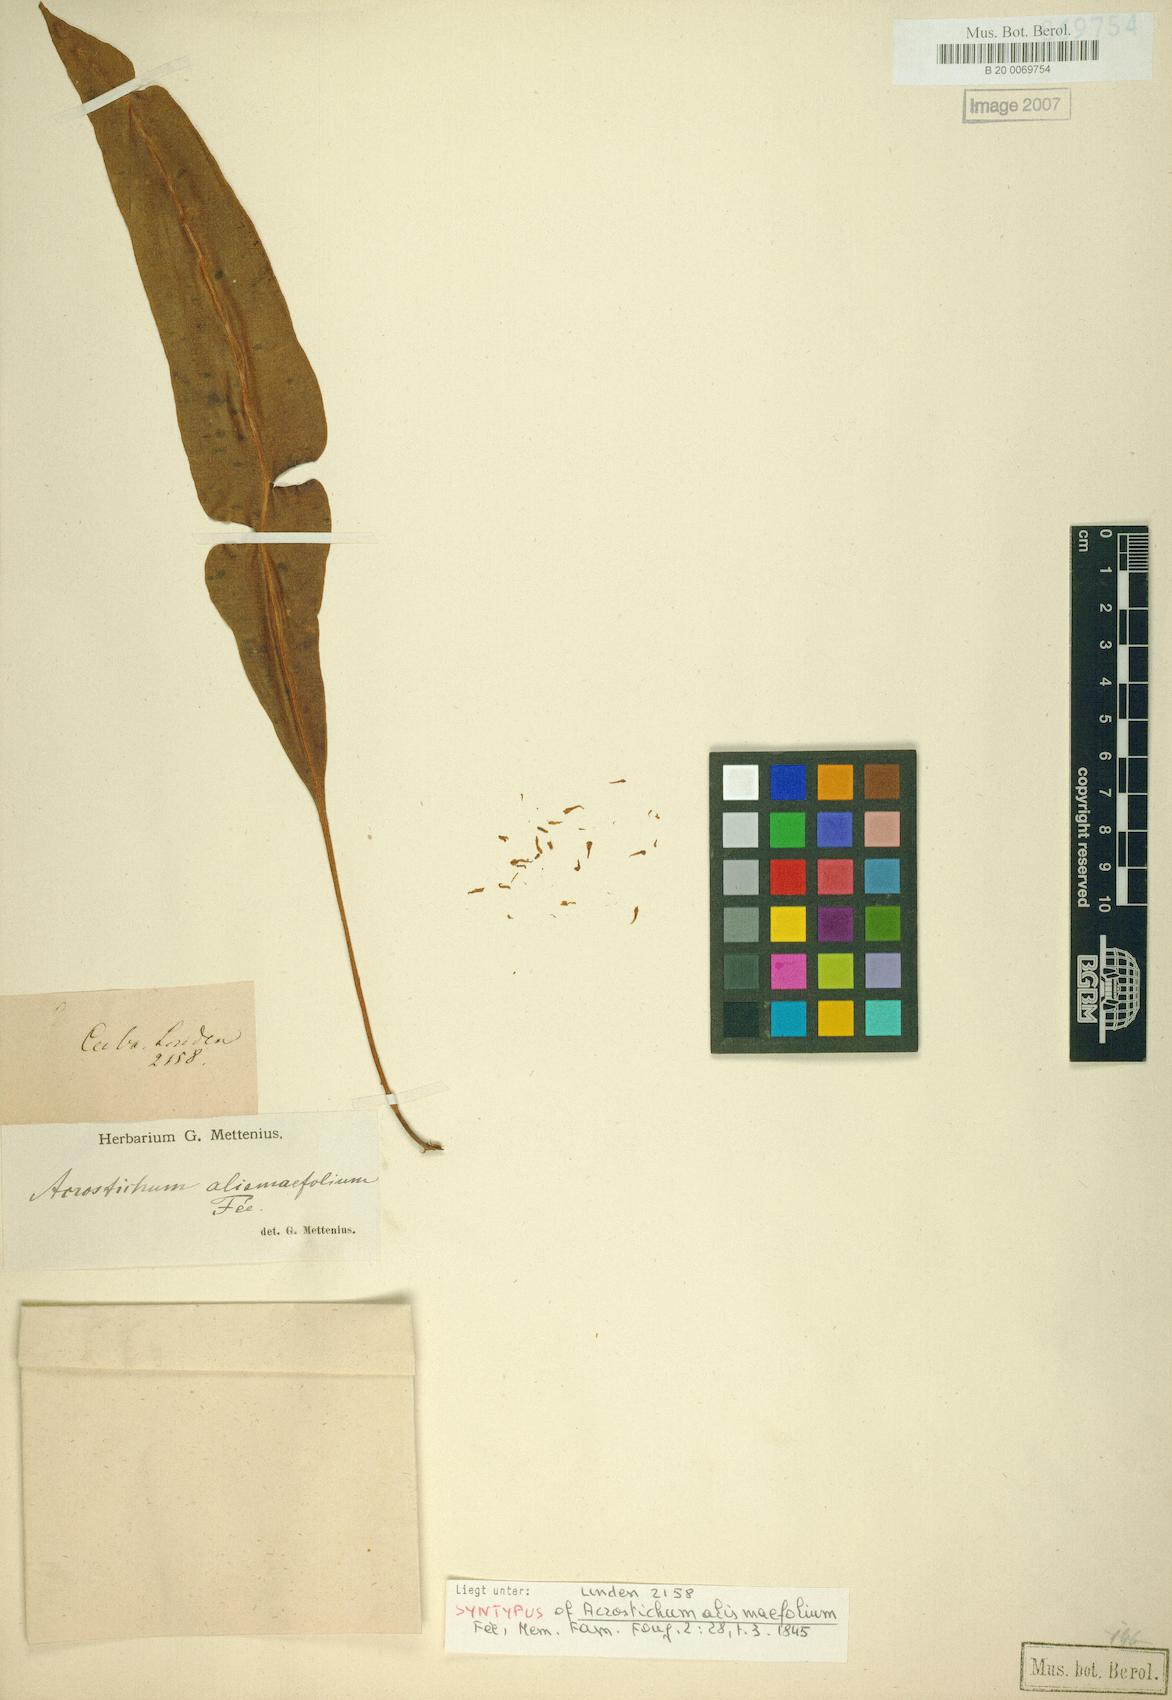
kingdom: Plantae
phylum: Tracheophyta
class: Polypodiopsida
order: Polypodiales
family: Dryopteridaceae
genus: Elaphoglossum
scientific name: Elaphoglossum andicola
